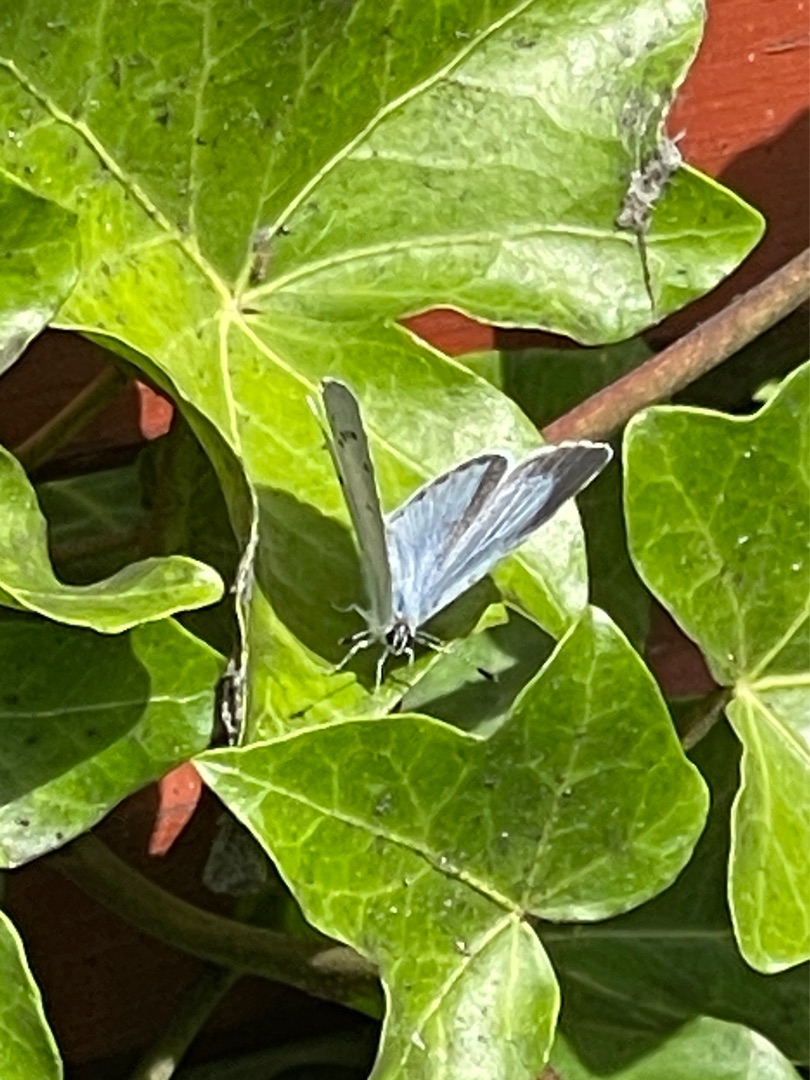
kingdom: Animalia
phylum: Arthropoda
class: Insecta
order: Lepidoptera
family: Lycaenidae
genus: Celastrina
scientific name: Celastrina argiolus
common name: Skovblåfugl
